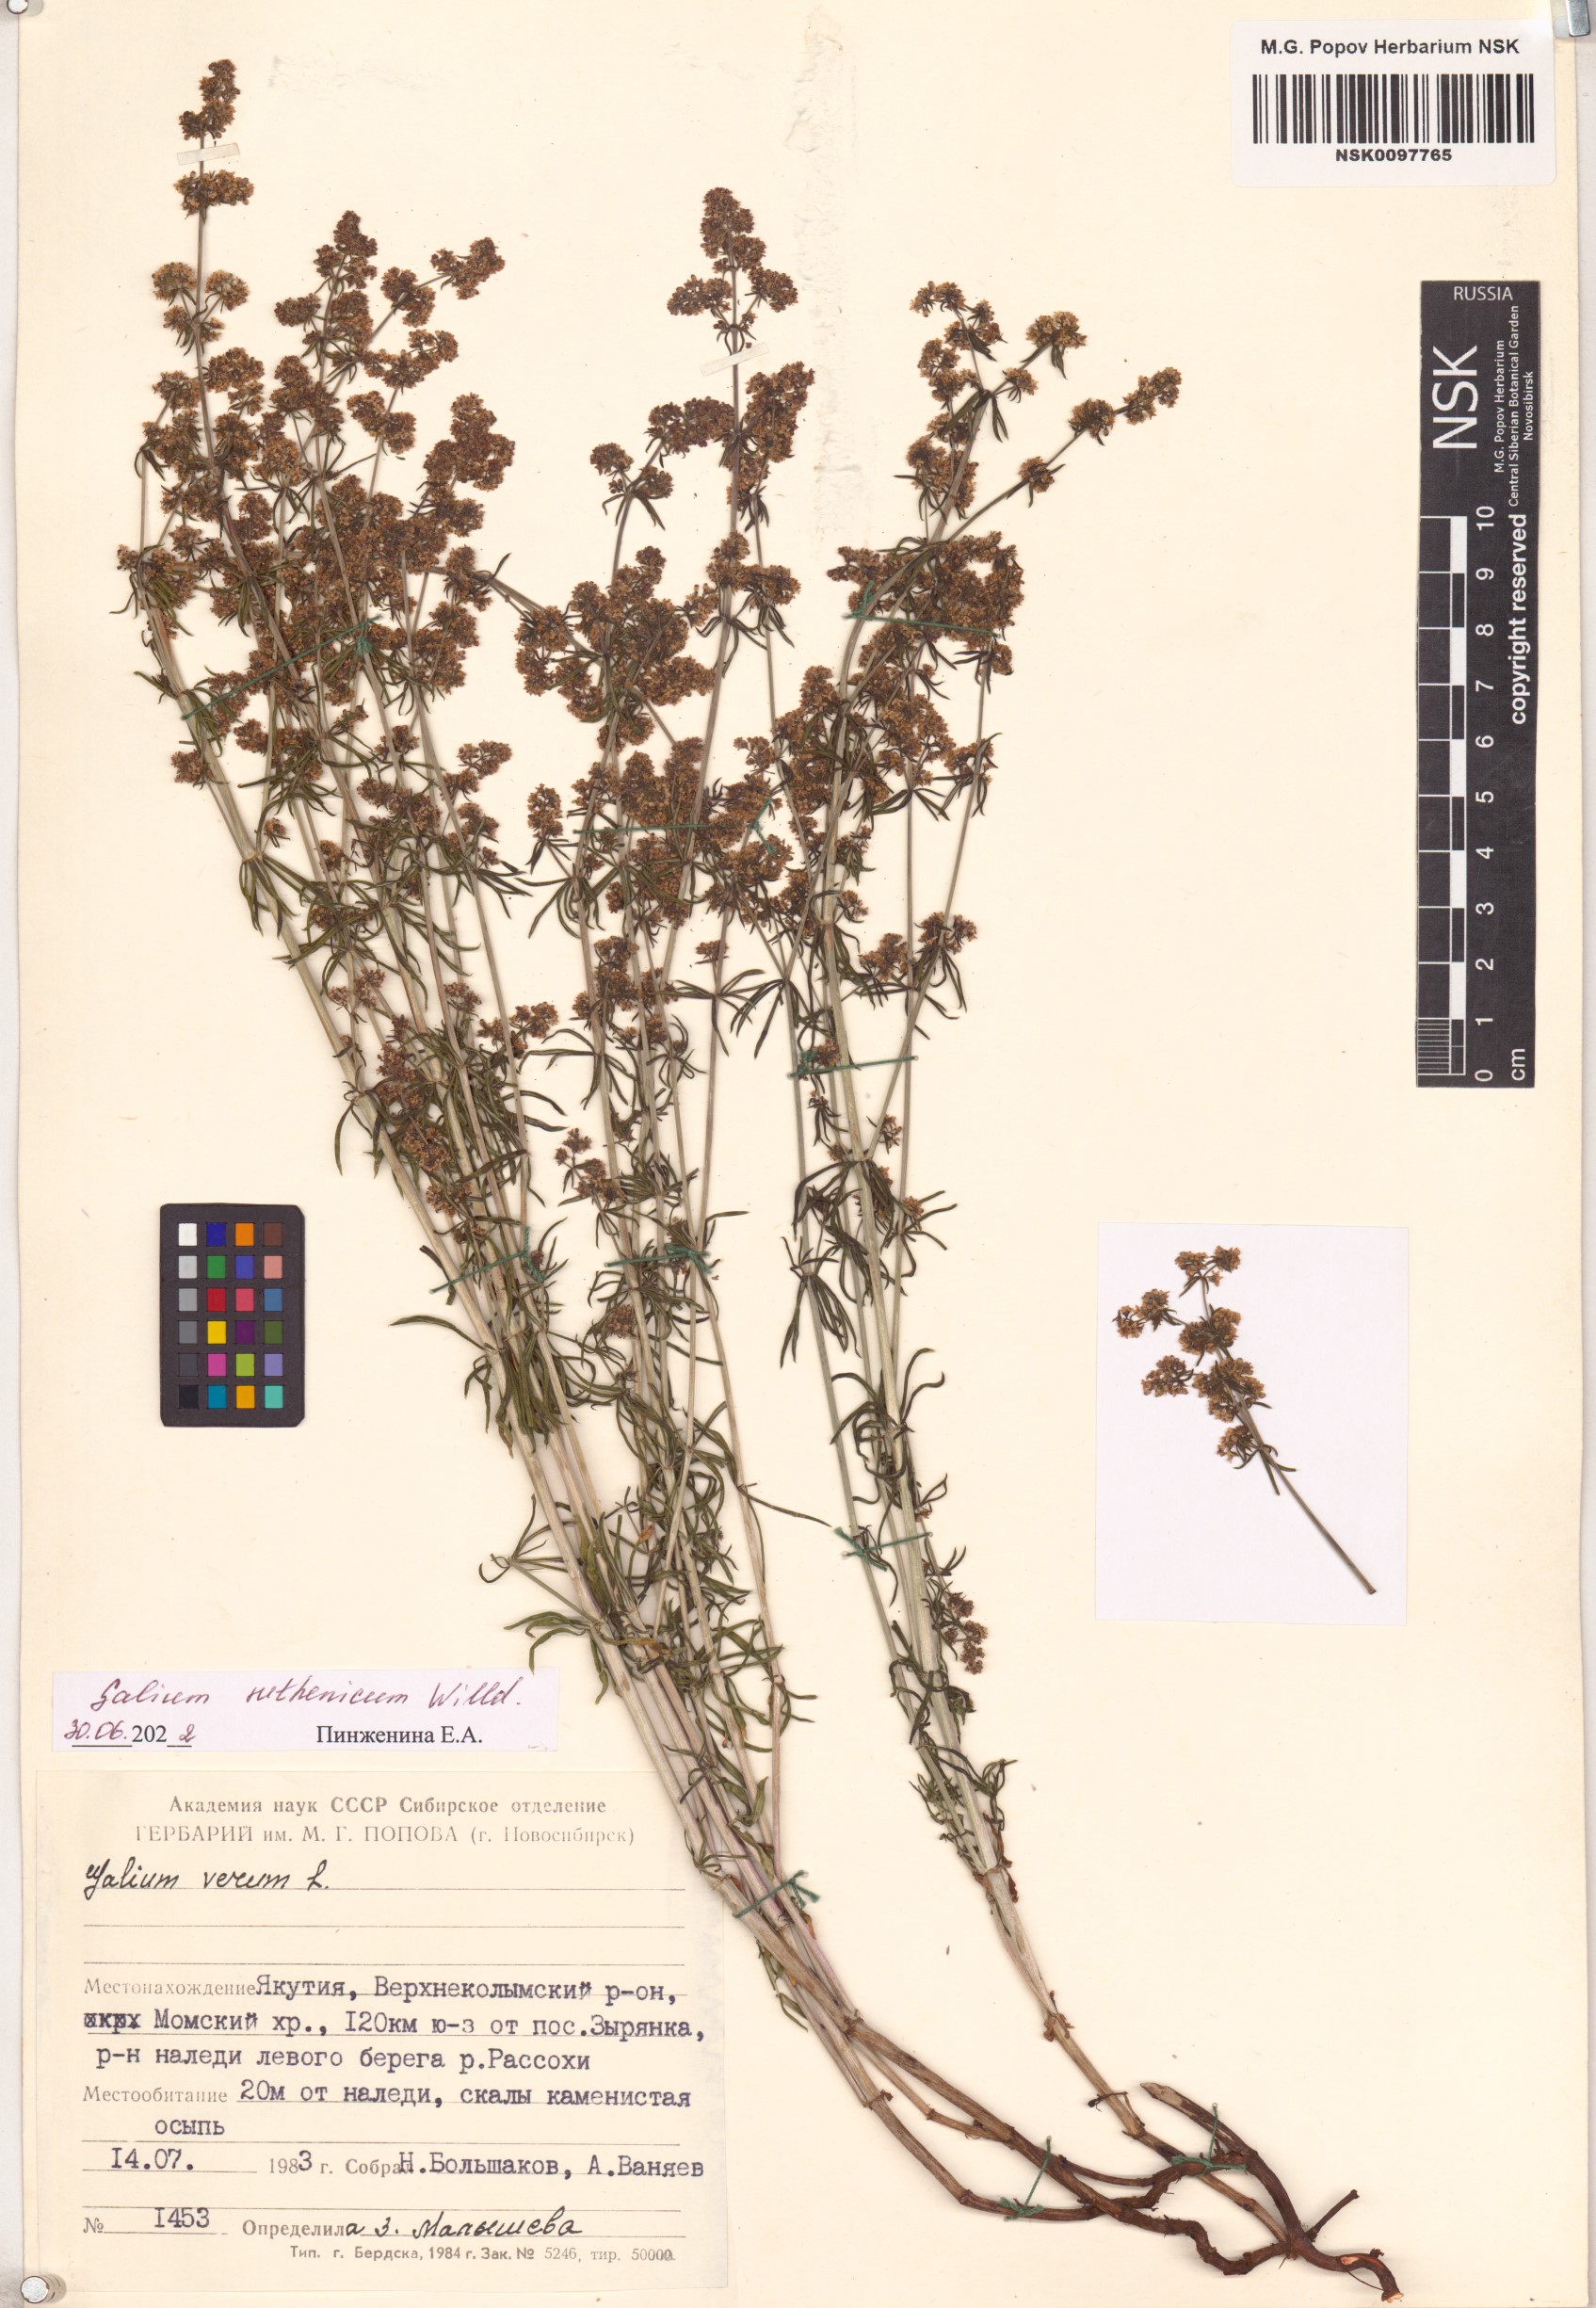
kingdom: Plantae
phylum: Tracheophyta
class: Magnoliopsida
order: Gentianales
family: Rubiaceae
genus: Galium
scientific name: Galium verum
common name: Lady's bedstraw
